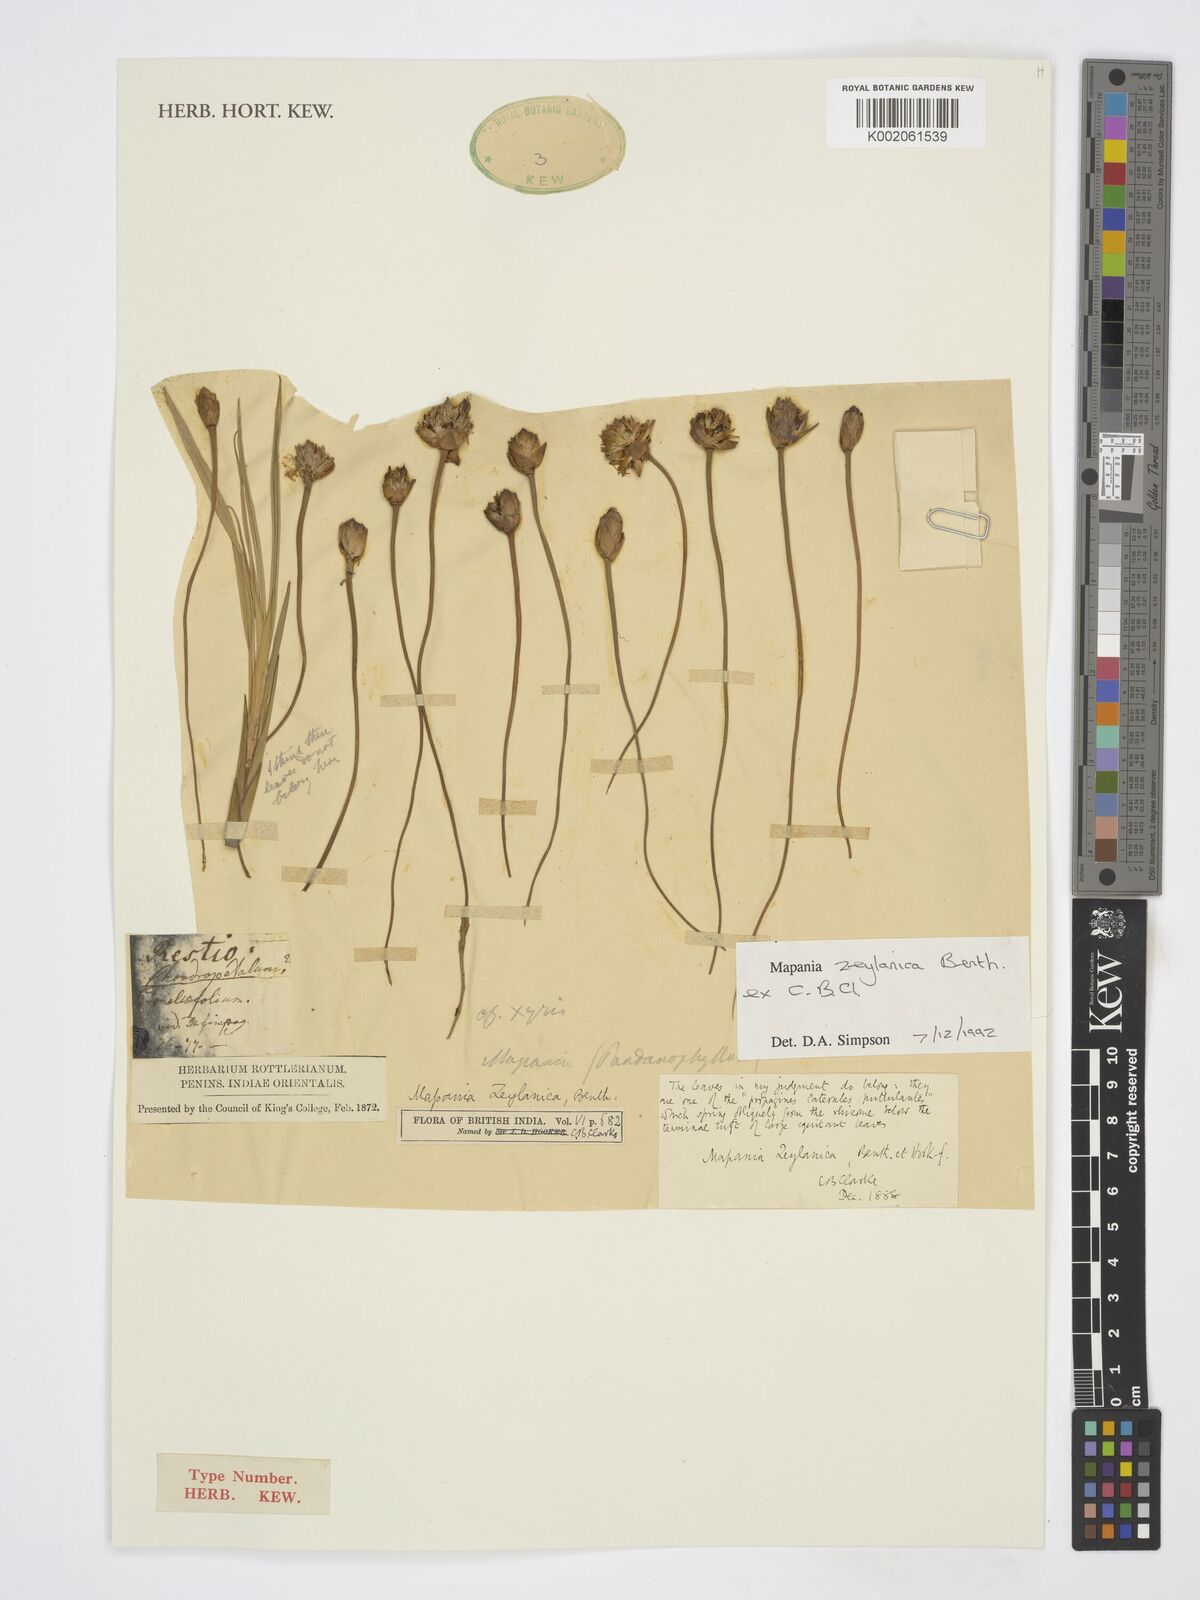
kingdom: Plantae
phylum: Tracheophyta
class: Liliopsida
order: Poales
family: Cyperaceae
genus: Mapania
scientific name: Mapania zeylanica
